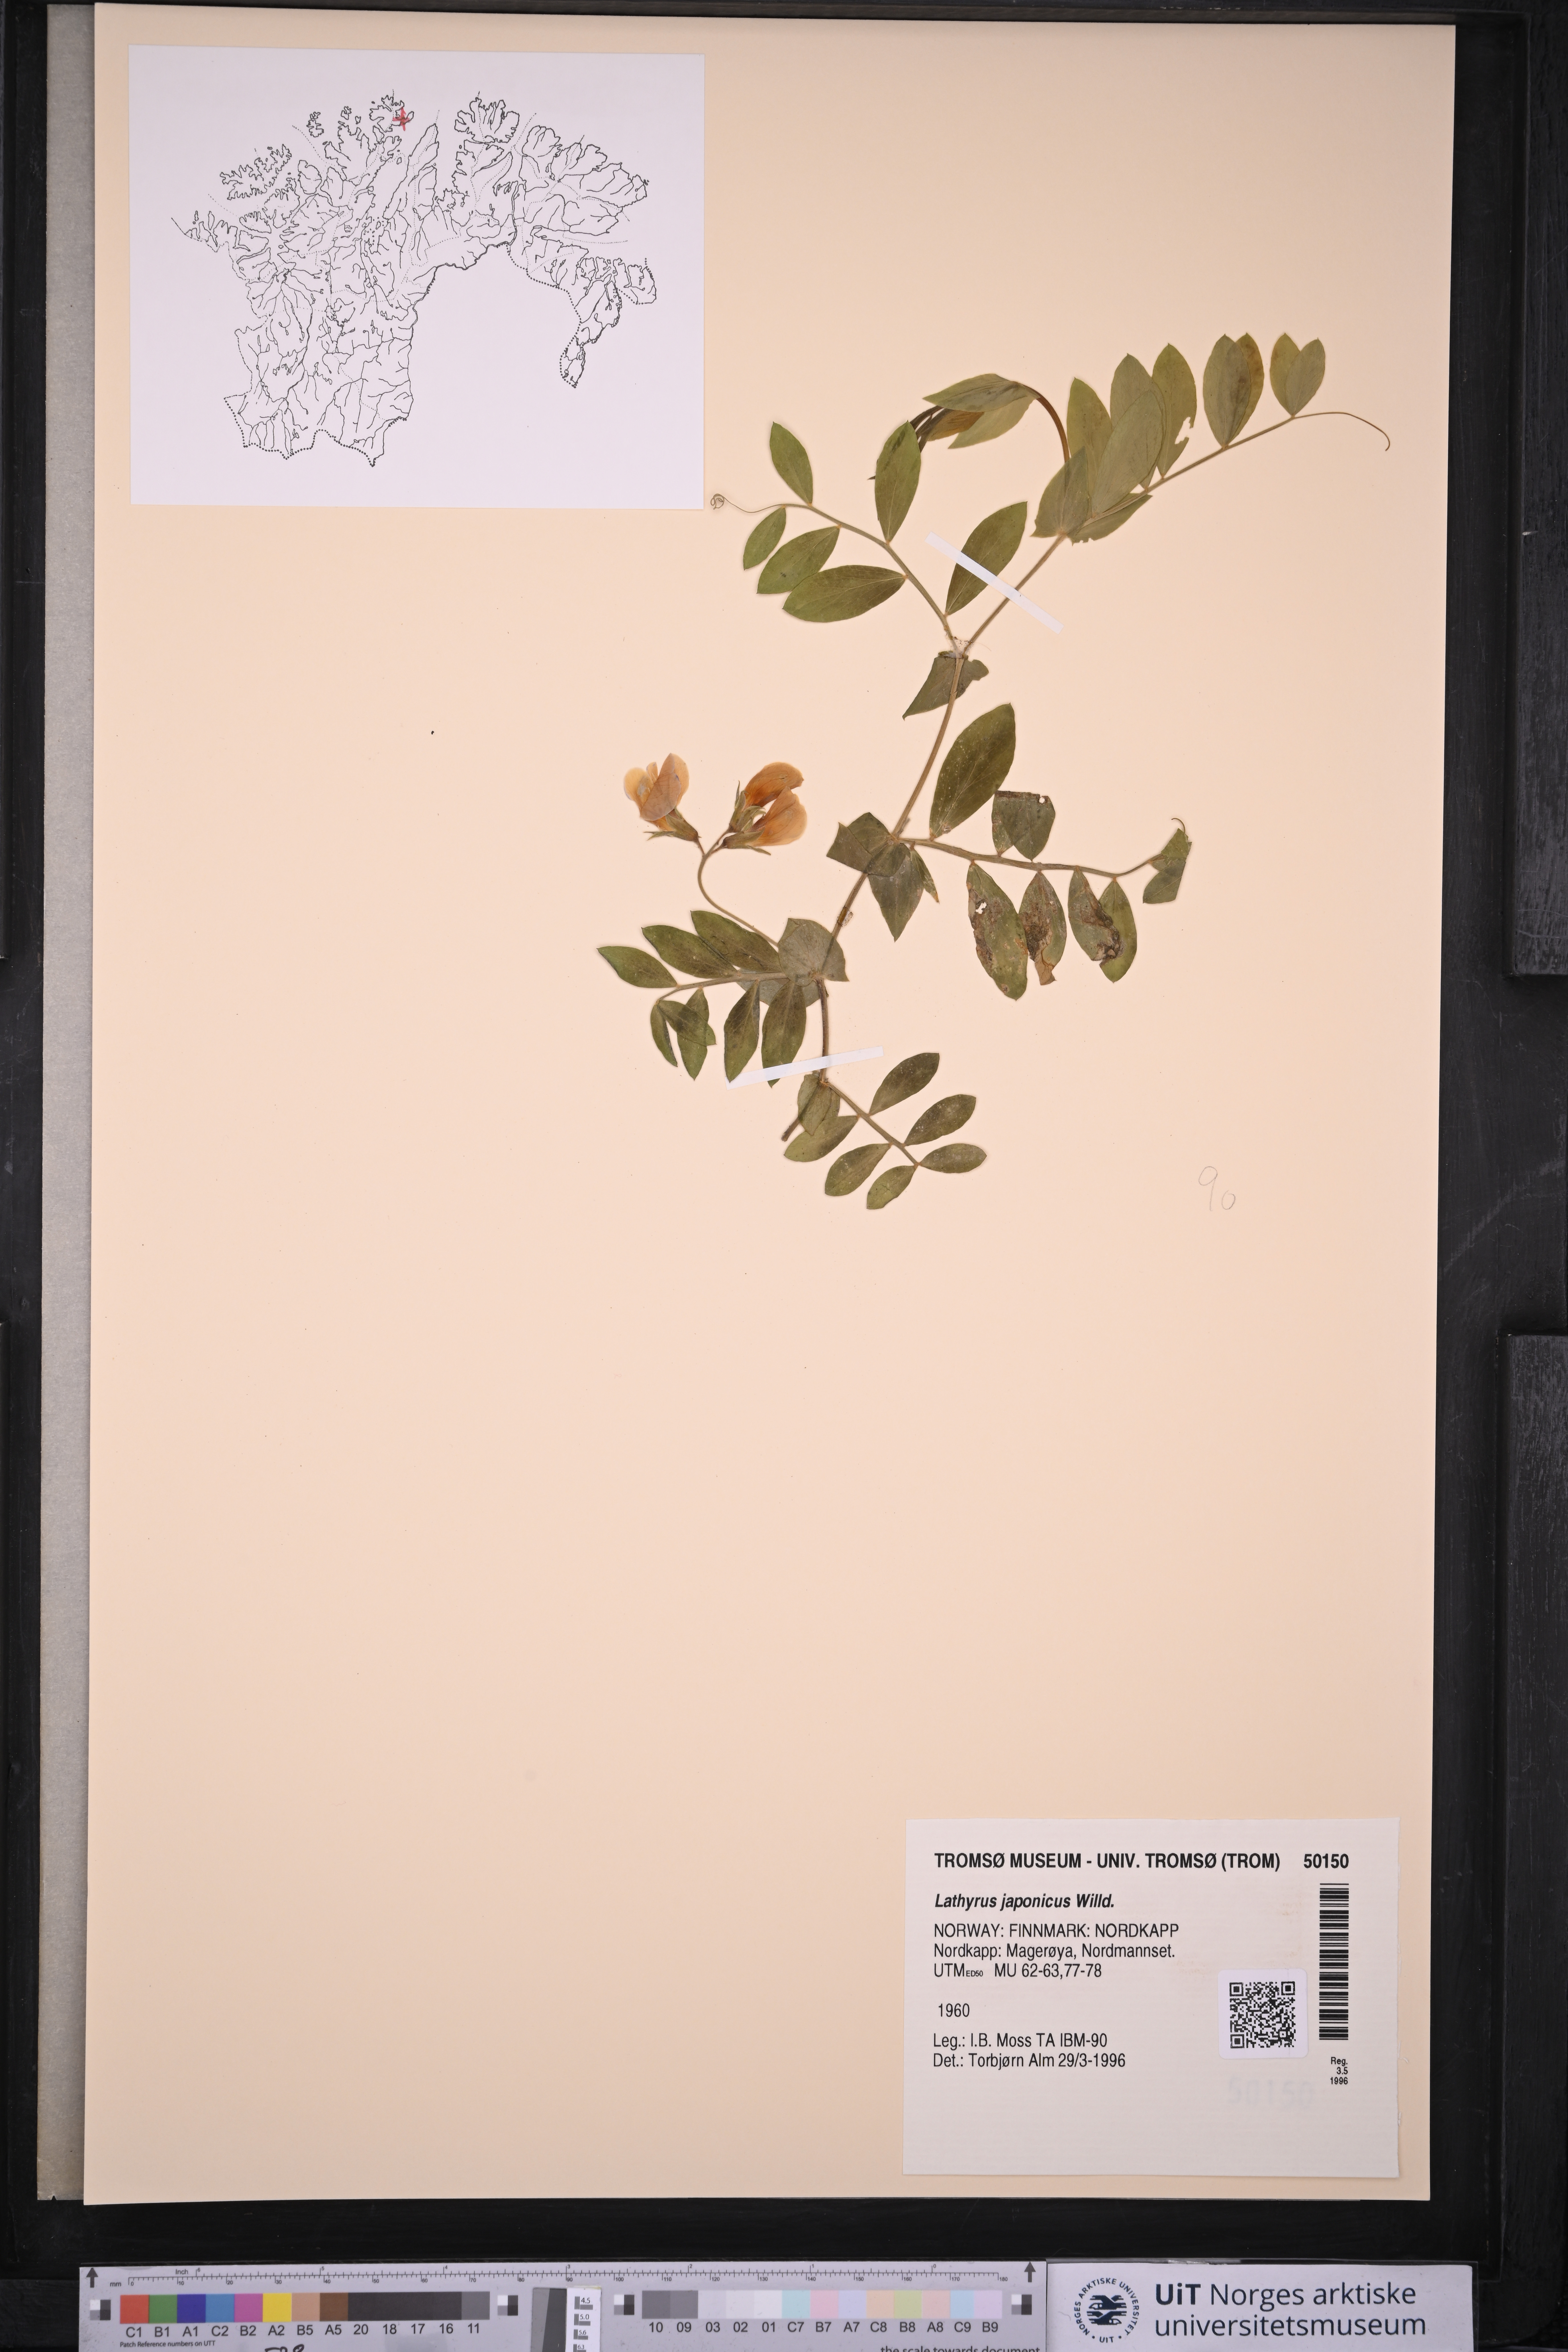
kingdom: Plantae
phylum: Tracheophyta
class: Magnoliopsida
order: Fabales
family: Fabaceae
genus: Lathyrus
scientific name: Lathyrus japonicus
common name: Sea pea
